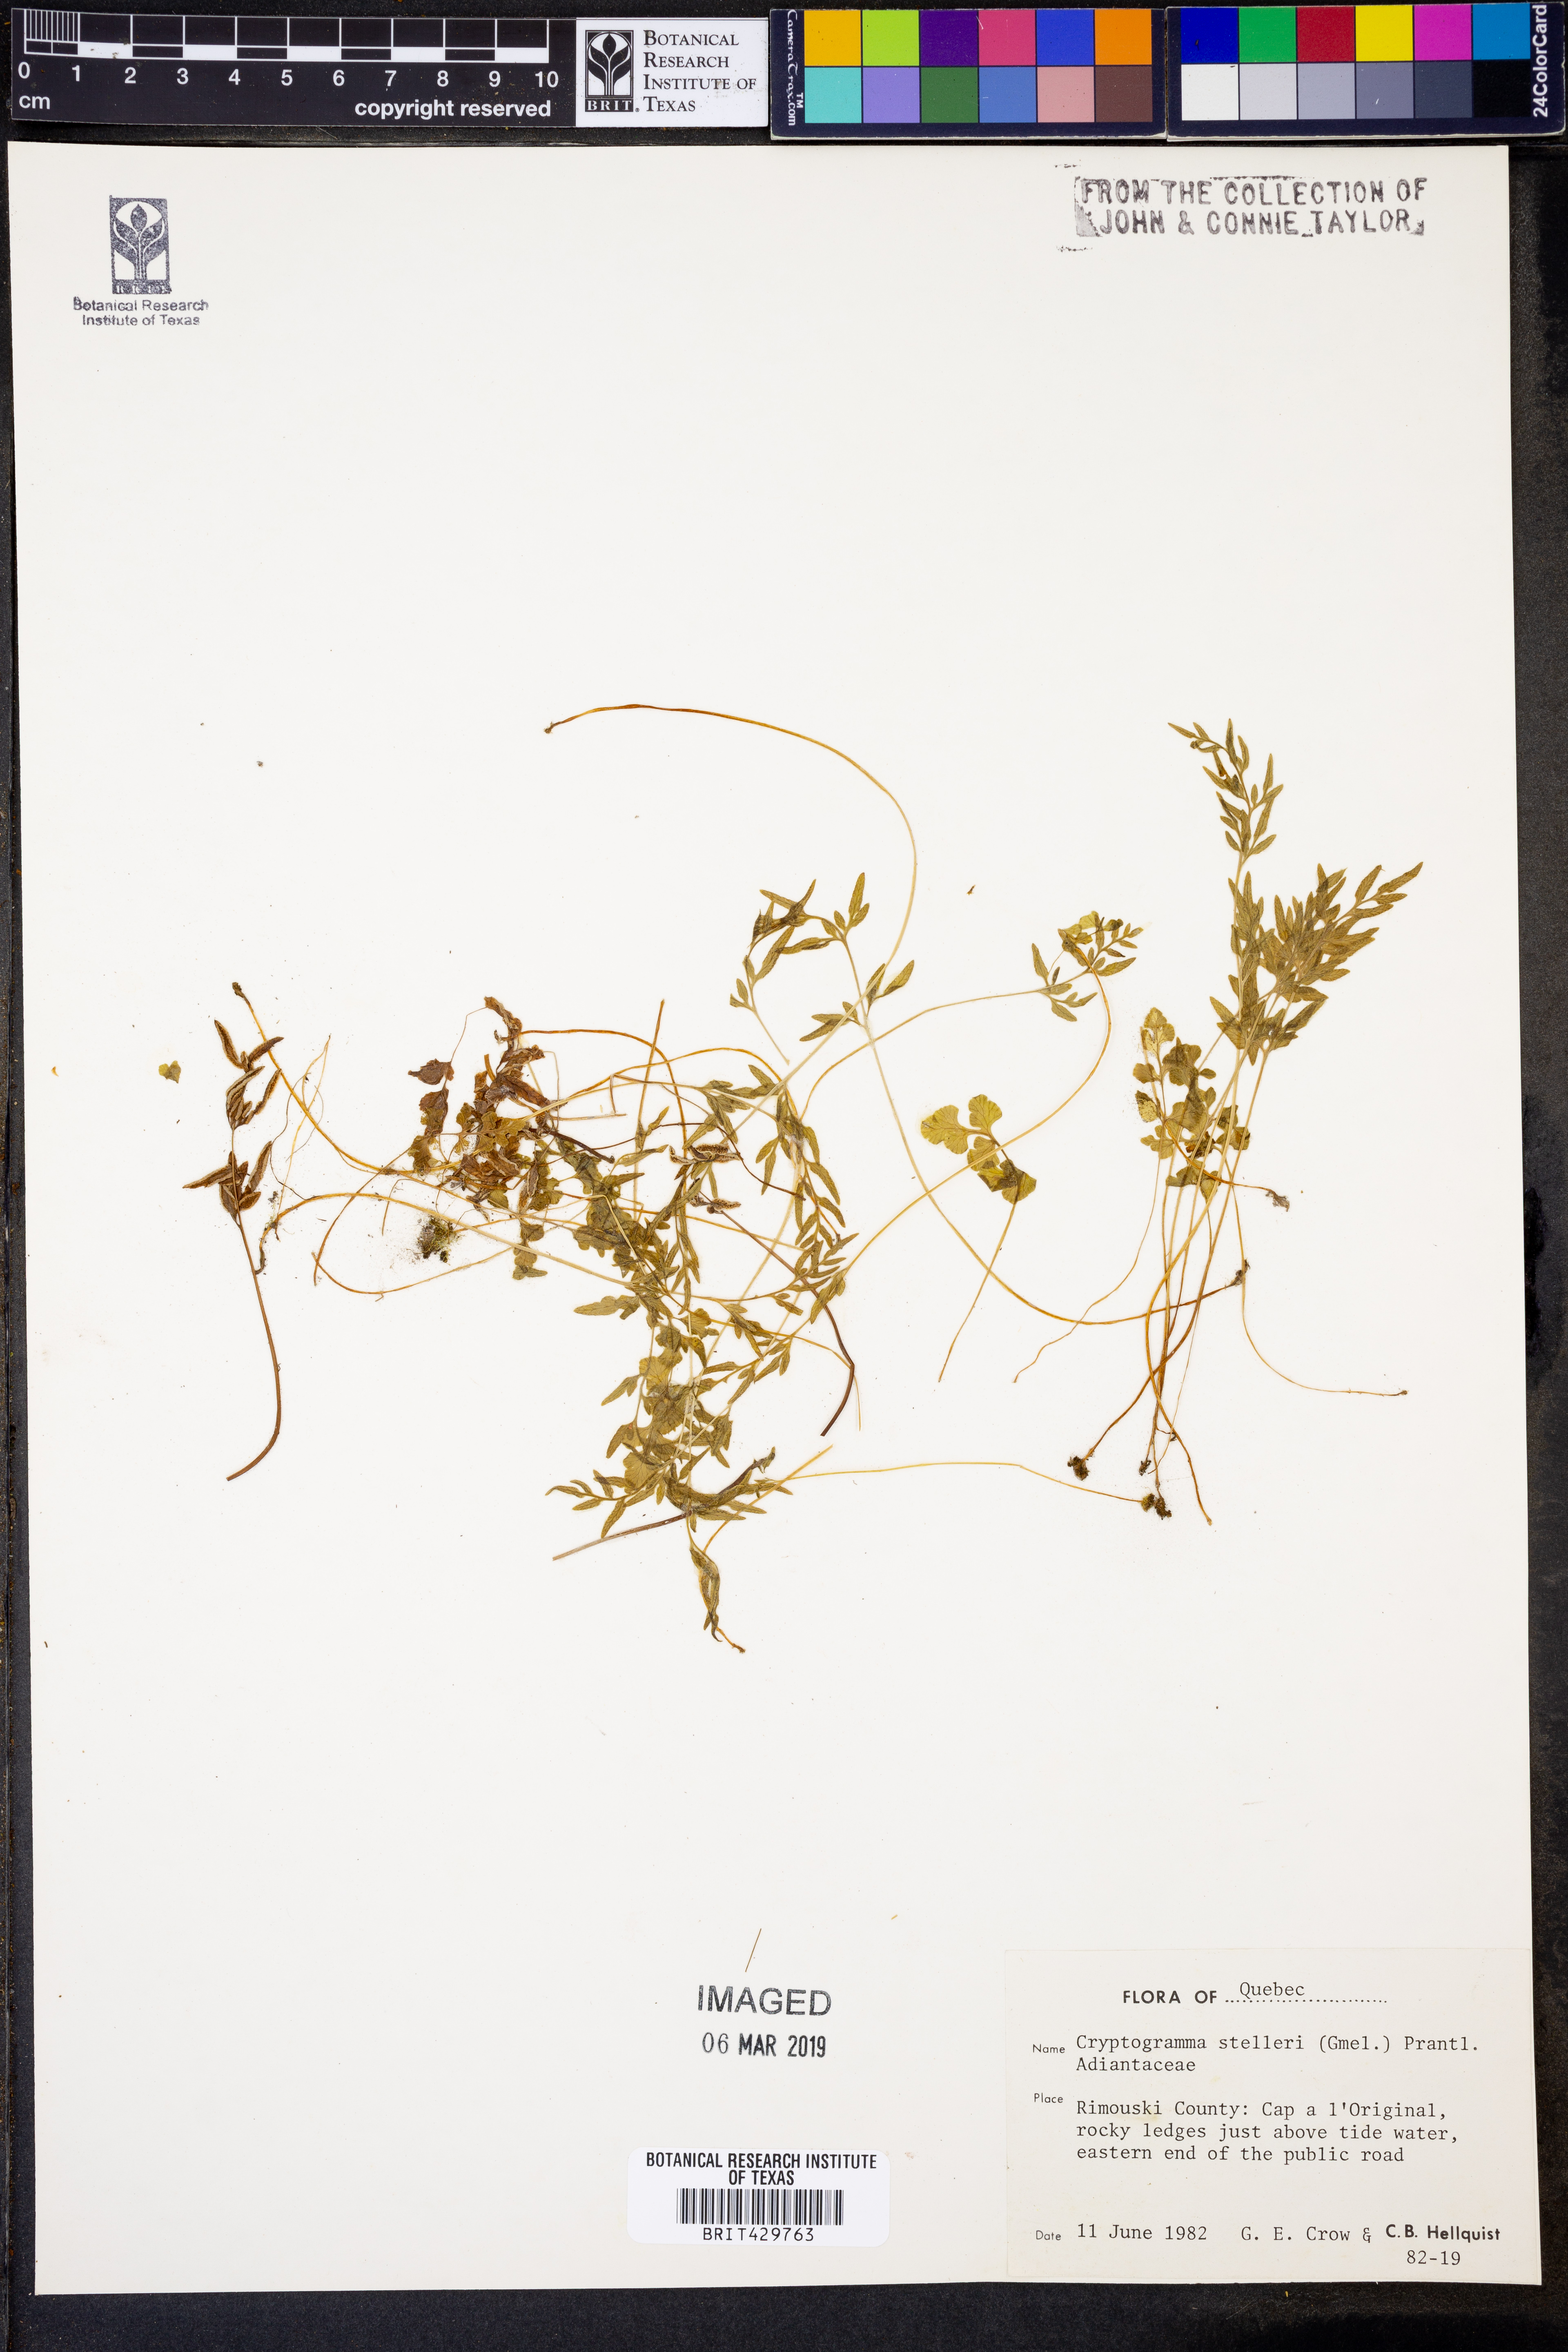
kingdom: Plantae
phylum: Tracheophyta
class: Polypodiopsida
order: Polypodiales
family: Pteridaceae
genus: Cryptogramma
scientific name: Cryptogramma stelleri
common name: Cliff-brake
